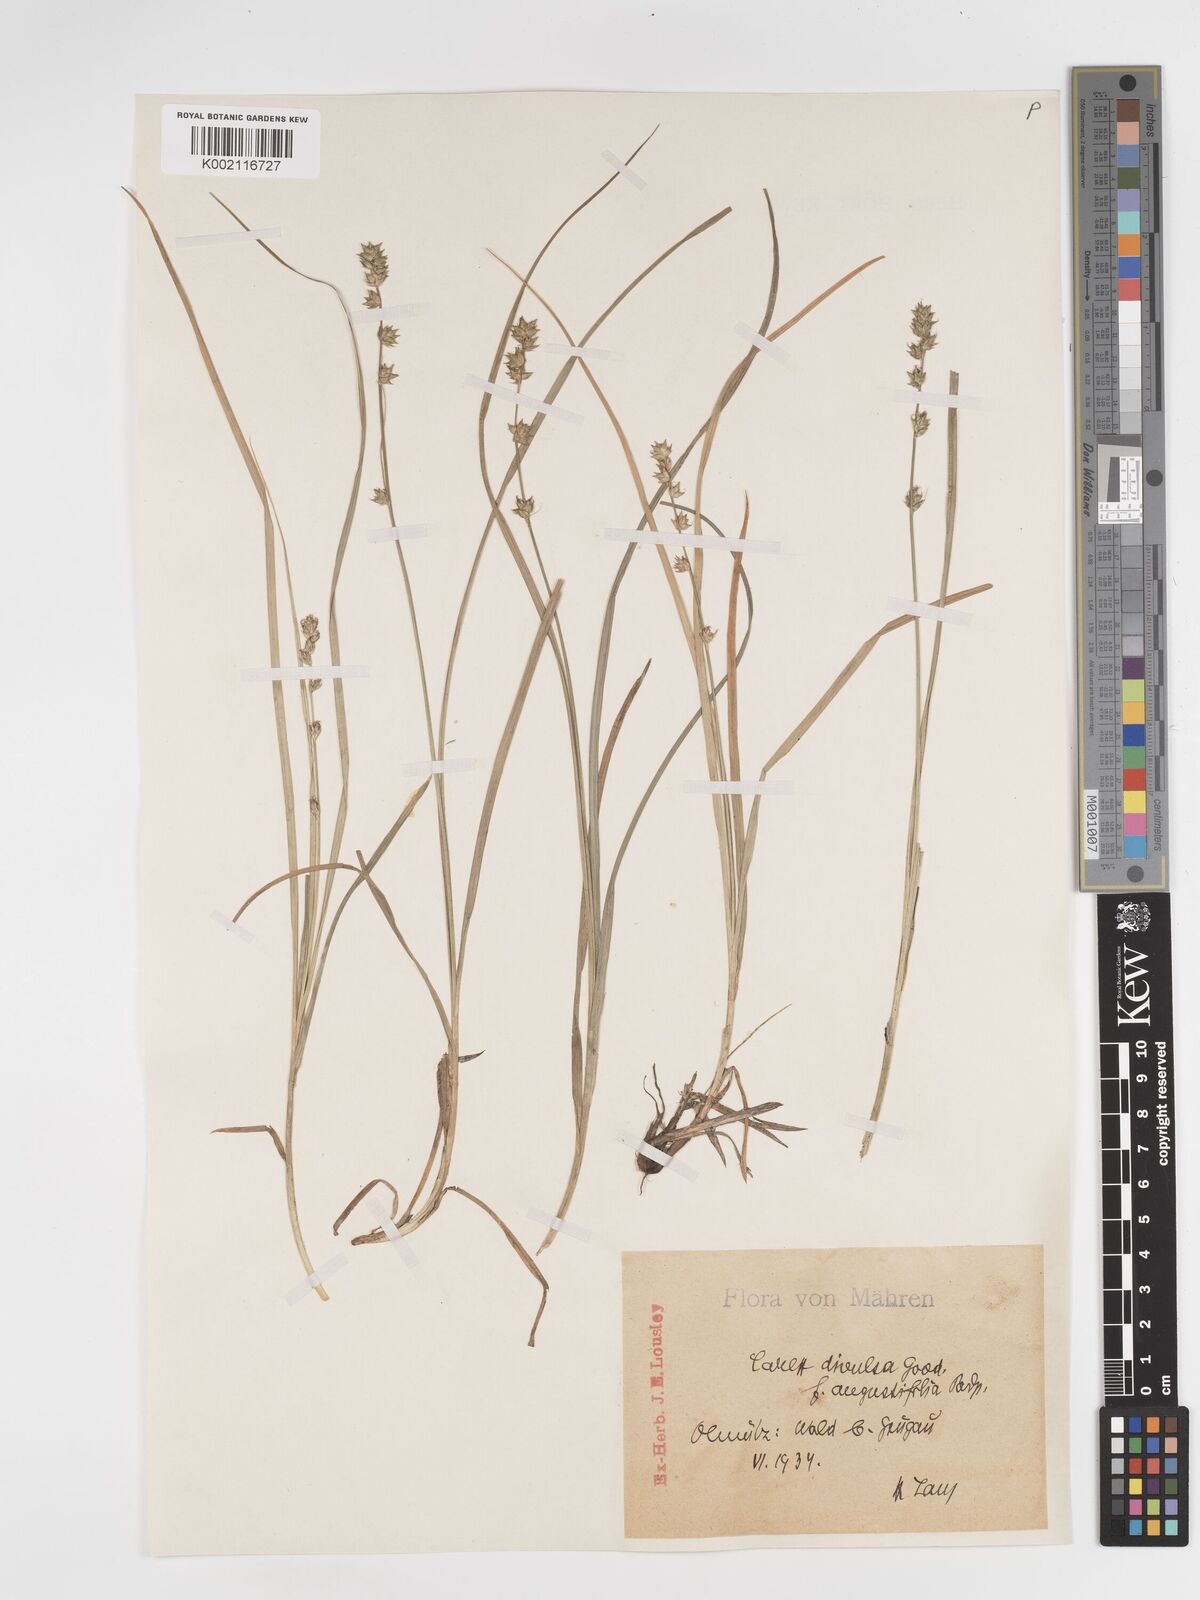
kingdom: Plantae
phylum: Tracheophyta
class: Liliopsida
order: Poales
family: Cyperaceae
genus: Carex
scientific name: Carex divulsa
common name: Grassland sedge
